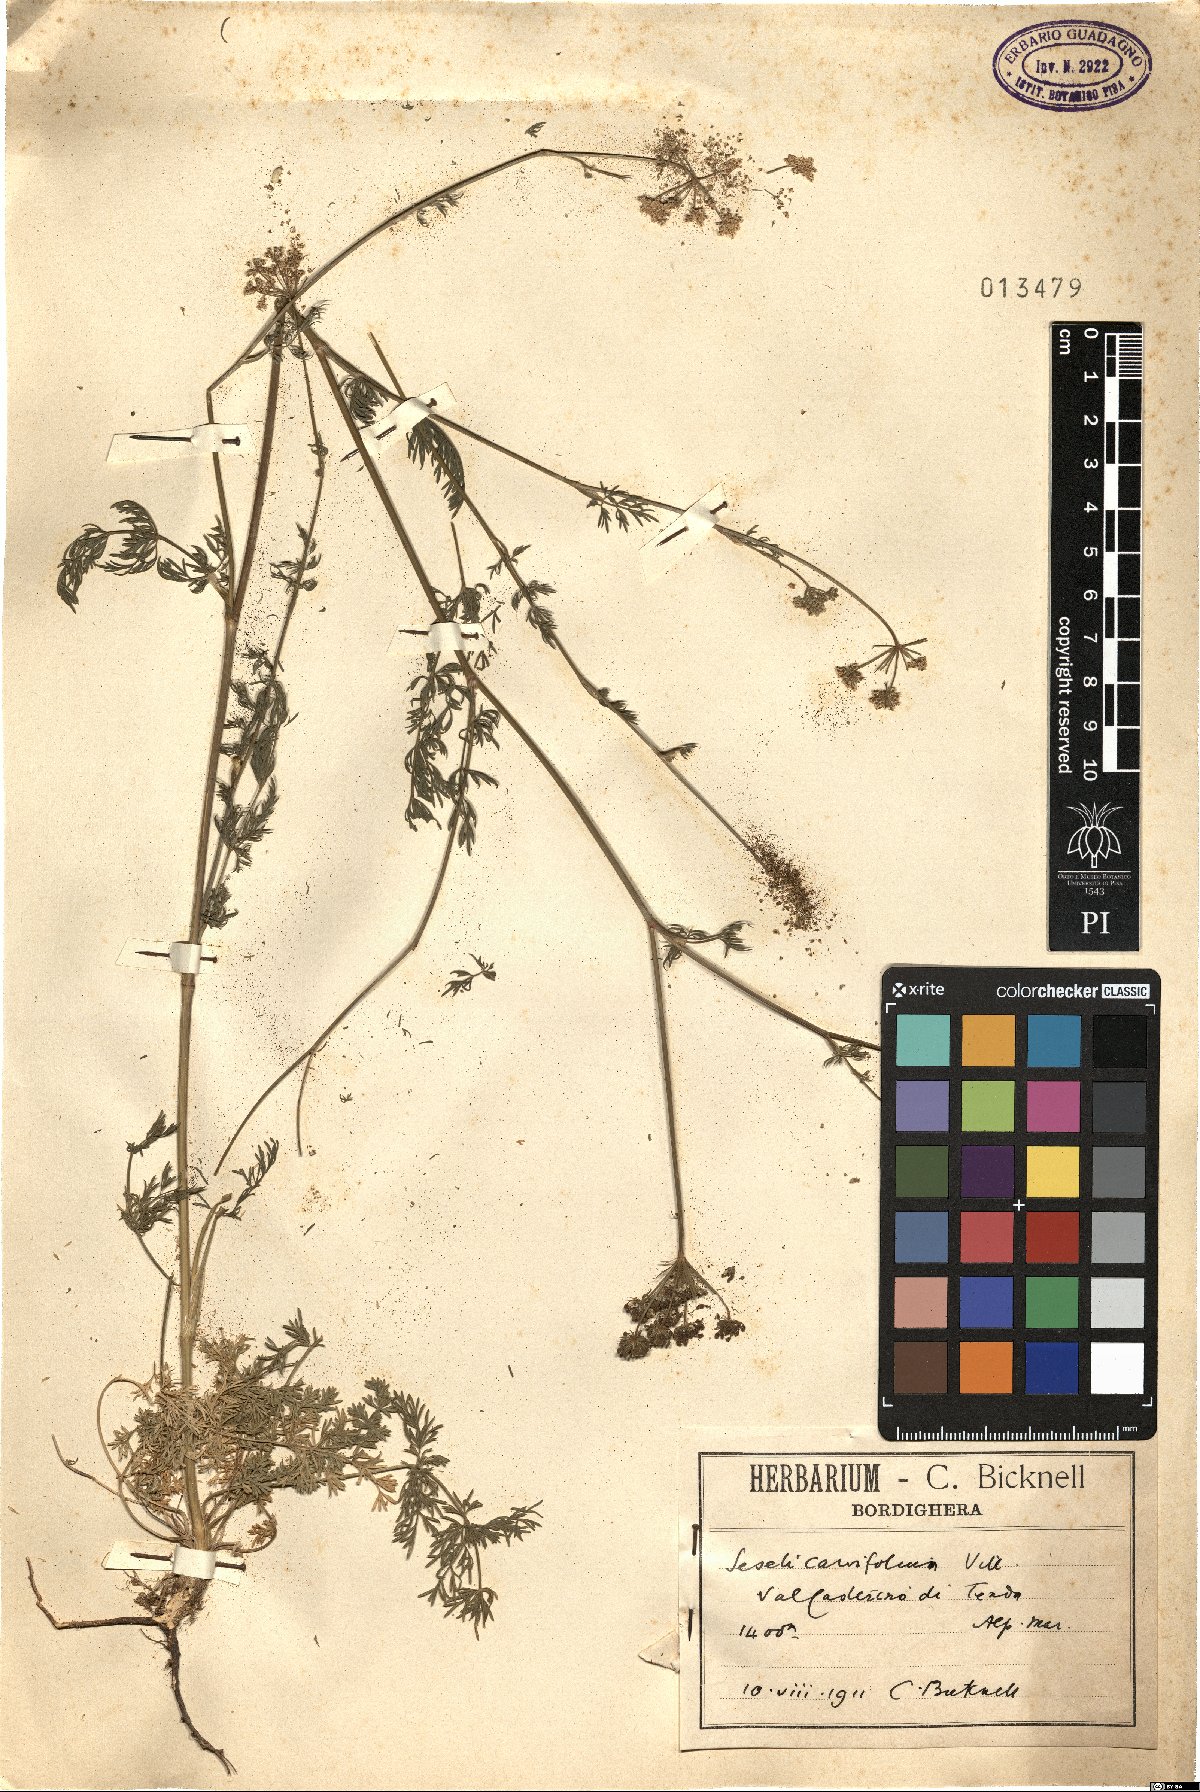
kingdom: Plantae
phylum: Tracheophyta
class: Magnoliopsida
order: Apiales
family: Apiaceae
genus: Seseli
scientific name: Seseli annuum
